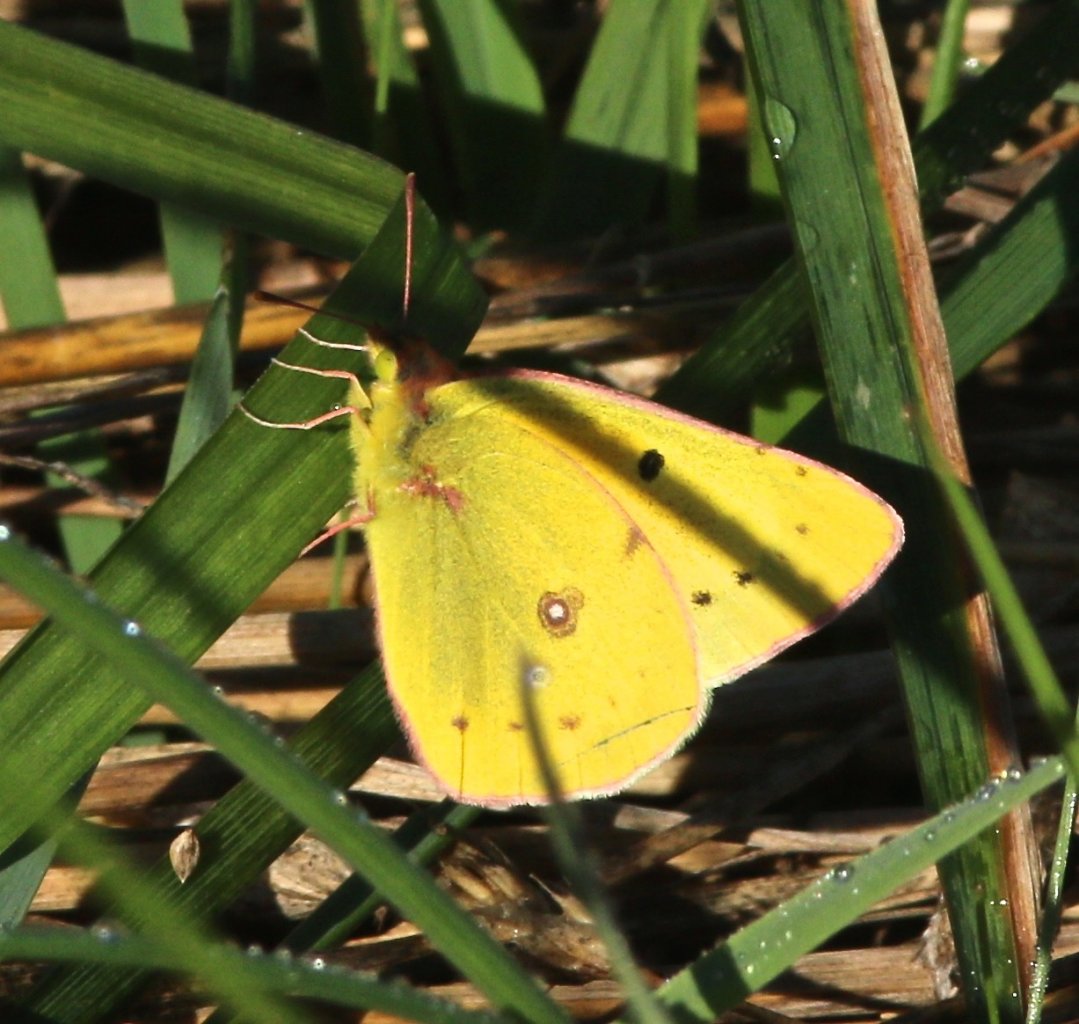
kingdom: Animalia
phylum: Arthropoda
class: Insecta
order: Lepidoptera
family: Pieridae
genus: Colias
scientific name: Colias eurytheme
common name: Orange Sulphur
